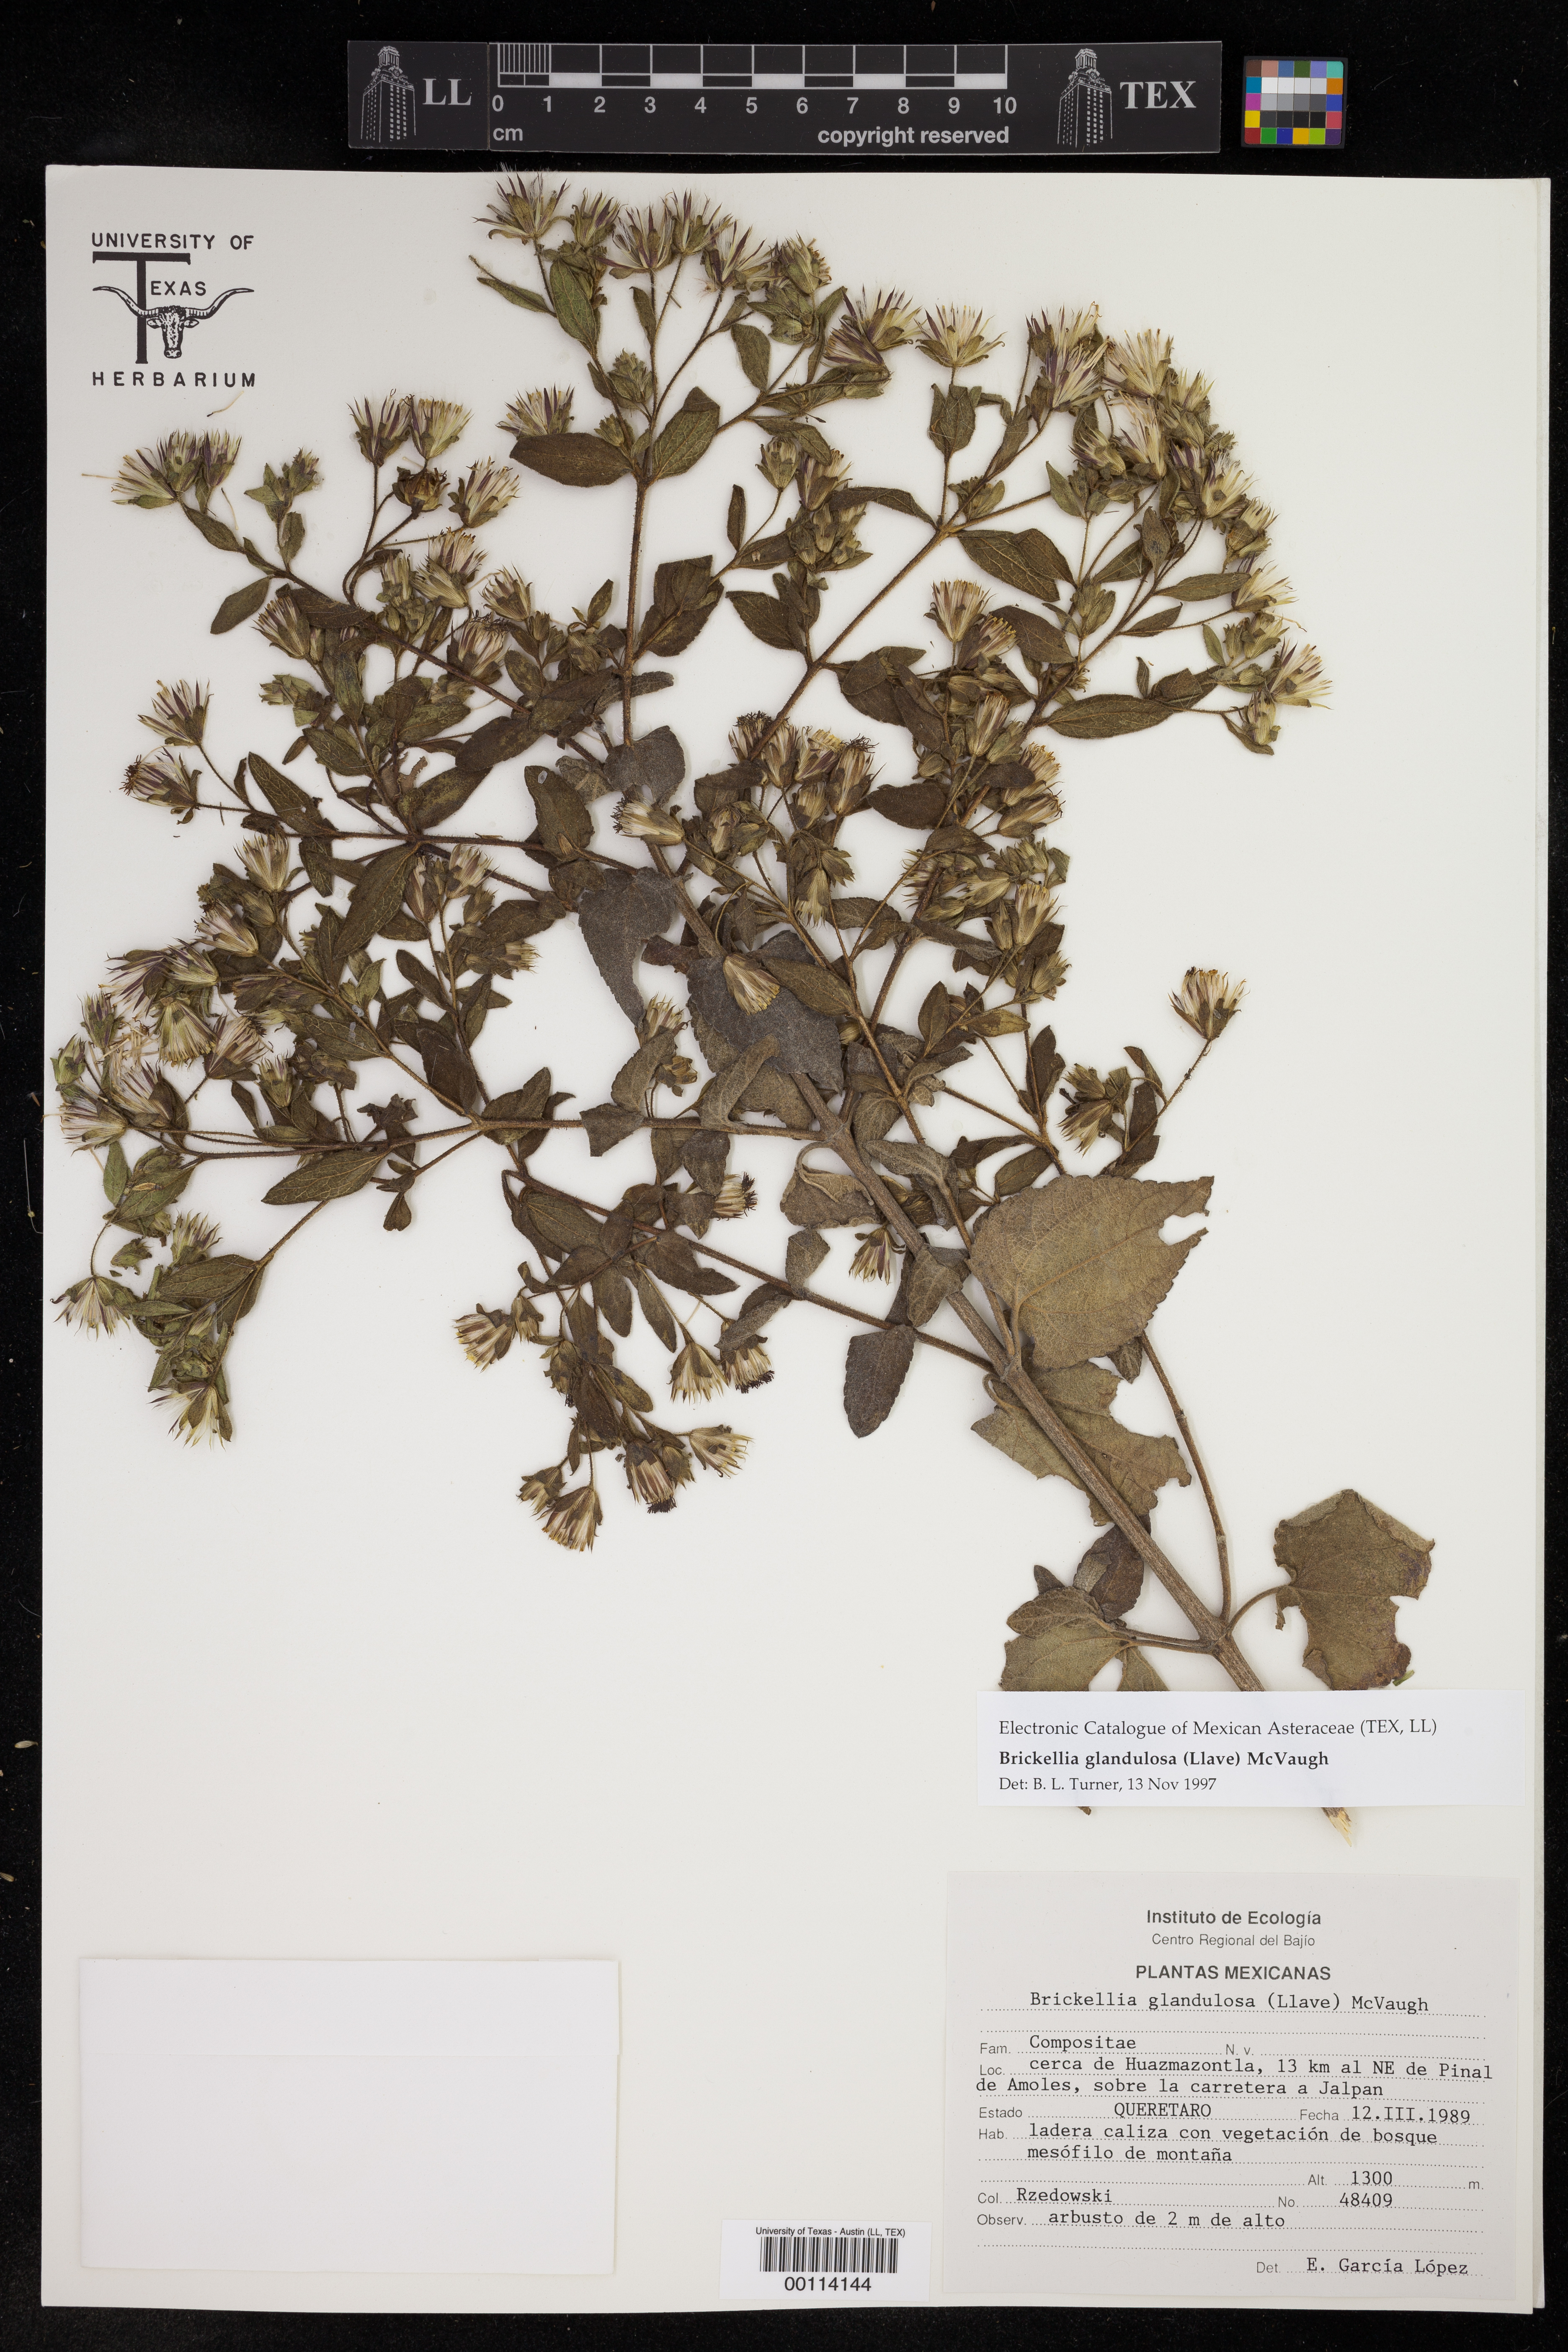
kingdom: Plantae
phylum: Tracheophyta
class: Magnoliopsida
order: Asterales
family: Asteraceae
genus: Brickellia
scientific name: Brickellia glandulosa
